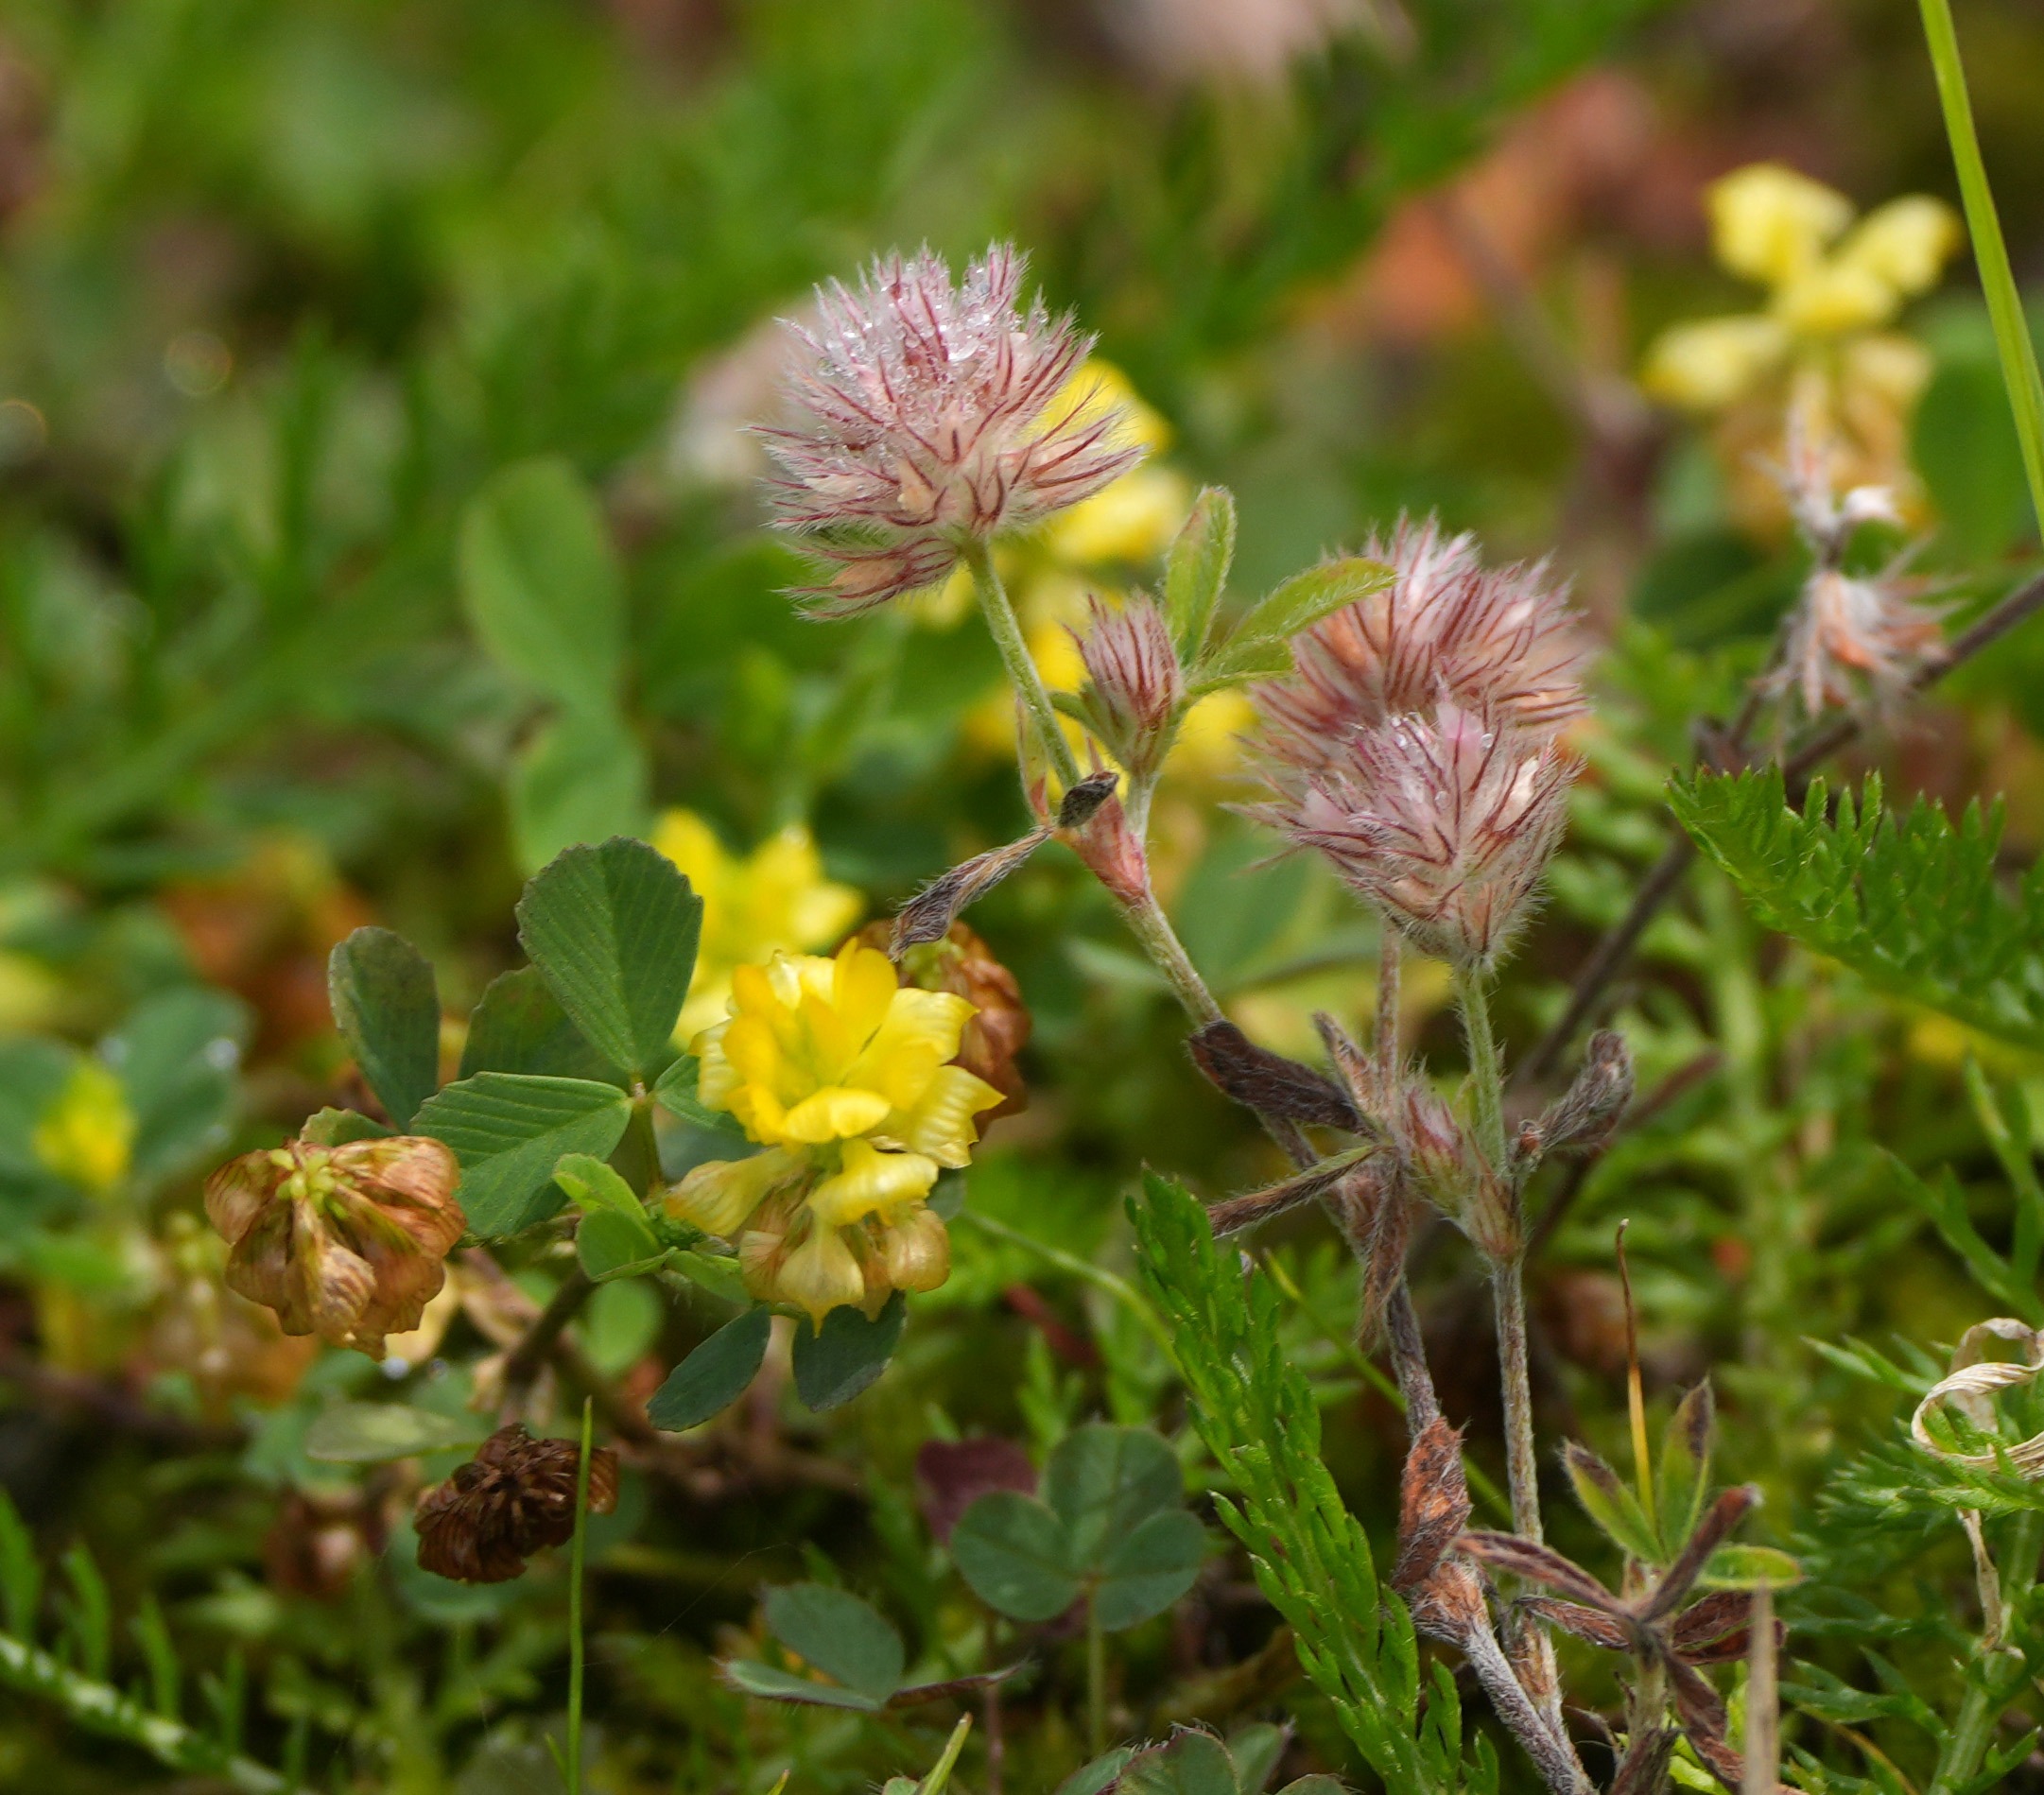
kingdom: Plantae
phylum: Tracheophyta
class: Magnoliopsida
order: Fabales
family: Fabaceae
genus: Trifolium
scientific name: Trifolium arvense
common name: Hare-kløver
